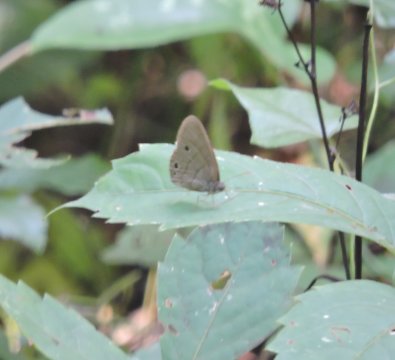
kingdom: Animalia
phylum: Arthropoda
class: Insecta
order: Lepidoptera
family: Nymphalidae
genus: Hermeuptychia
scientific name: Hermeuptychia hermes
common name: Carolina Satyr
